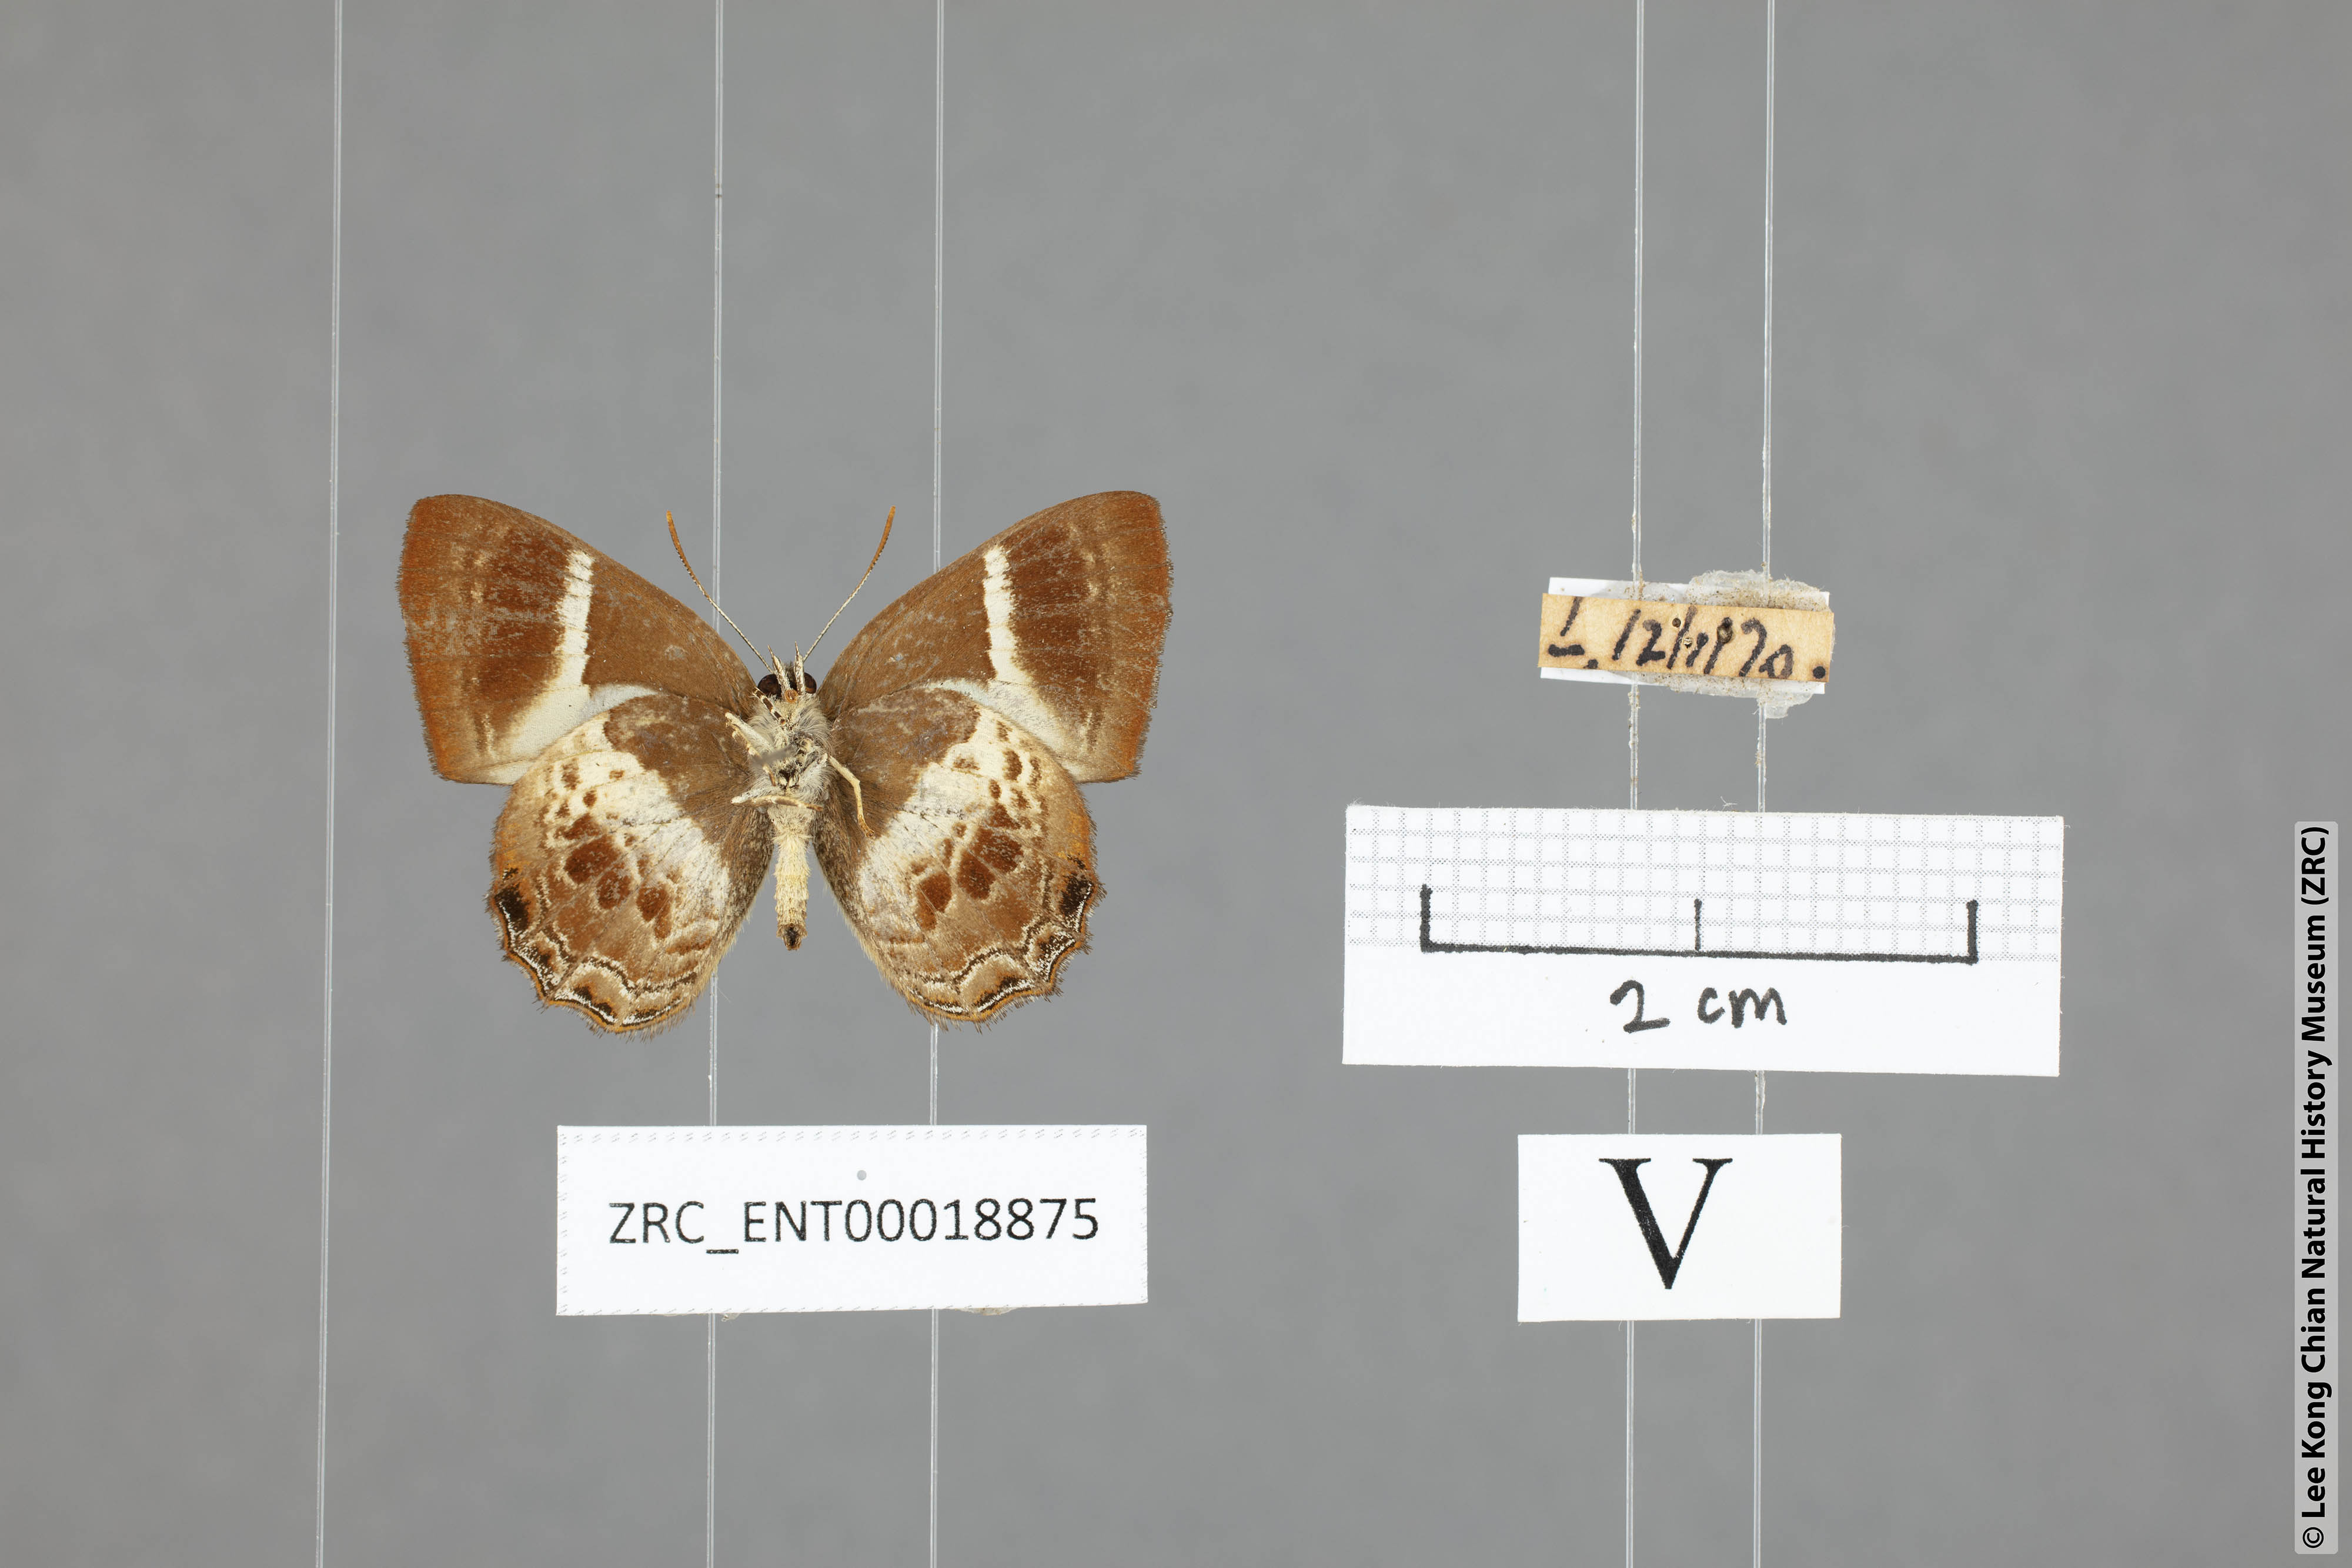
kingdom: Animalia
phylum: Arthropoda
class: Insecta
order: Lepidoptera
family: Lycaenidae
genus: Simiskina
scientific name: Simiskina pediada
